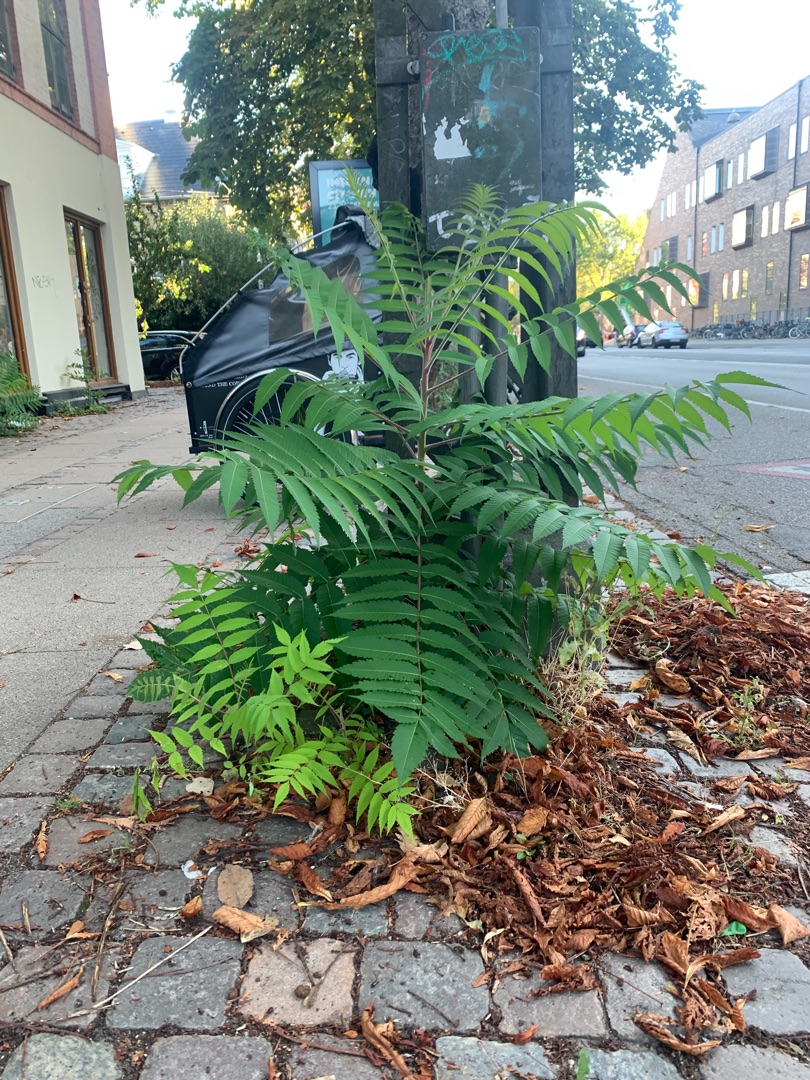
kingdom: Plantae
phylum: Tracheophyta
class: Magnoliopsida
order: Sapindales
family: Anacardiaceae
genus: Rhus
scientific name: Rhus typhina
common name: Hjortetaktræ
